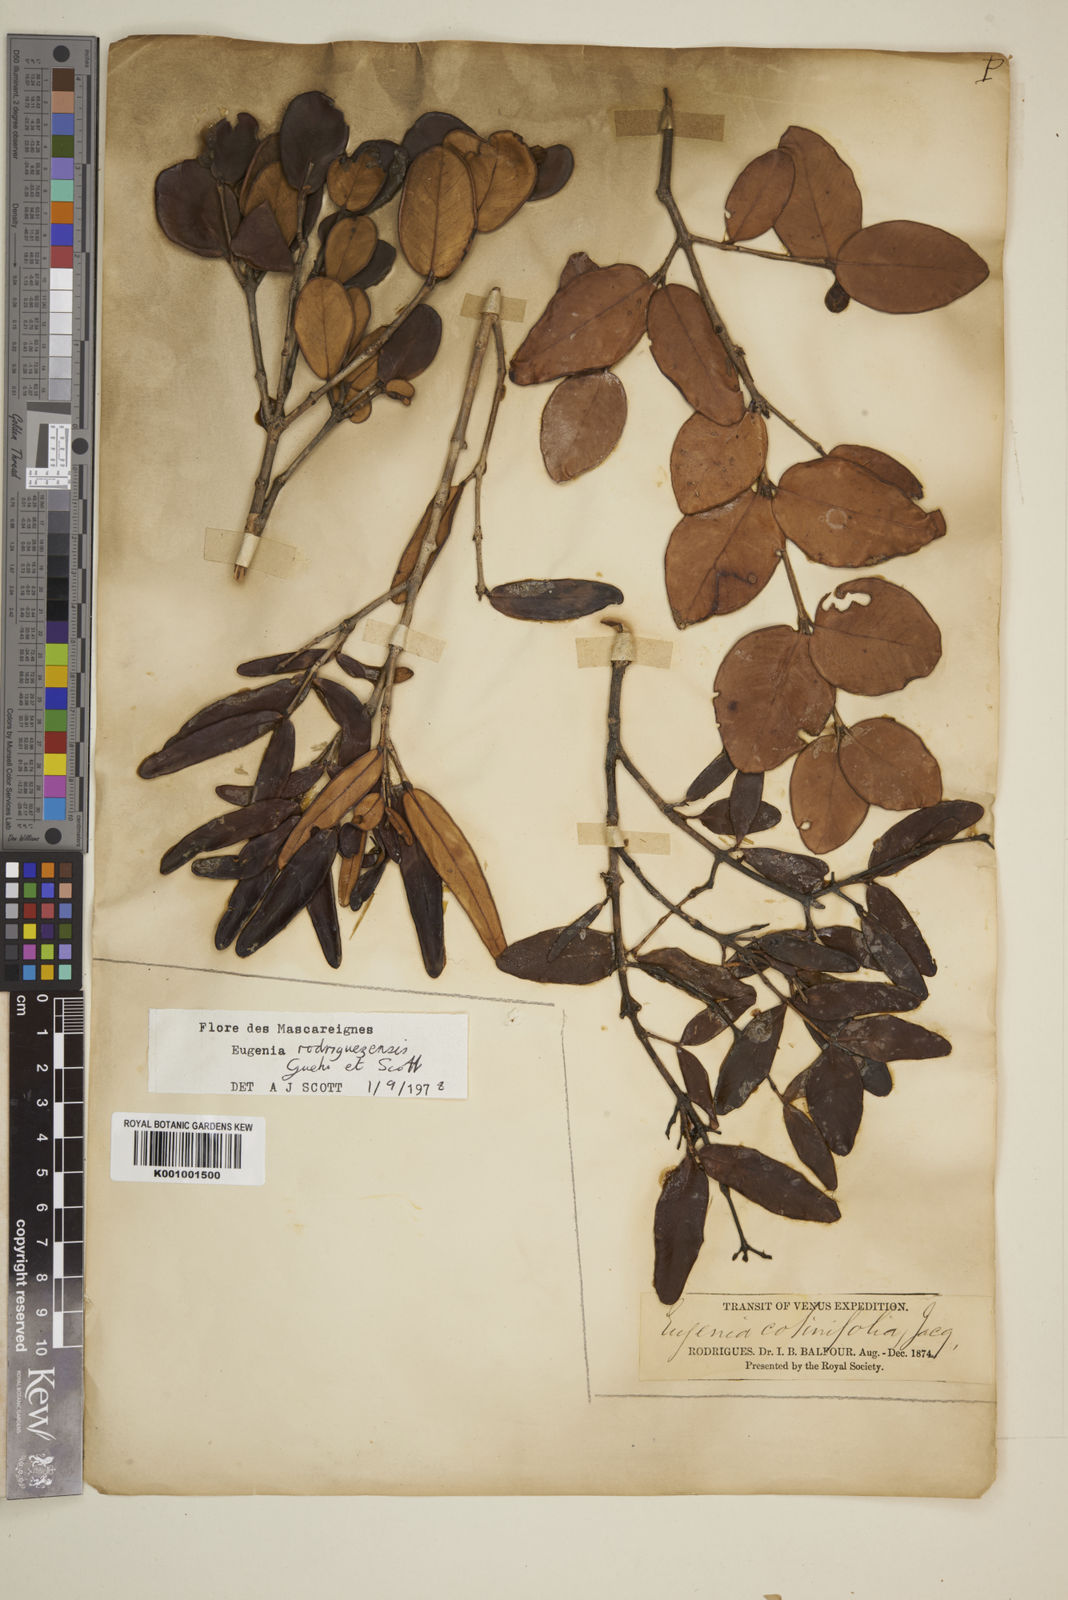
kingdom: Plantae
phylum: Tracheophyta
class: Magnoliopsida
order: Myrtales
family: Myrtaceae
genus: Eugenia
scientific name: Eugenia
